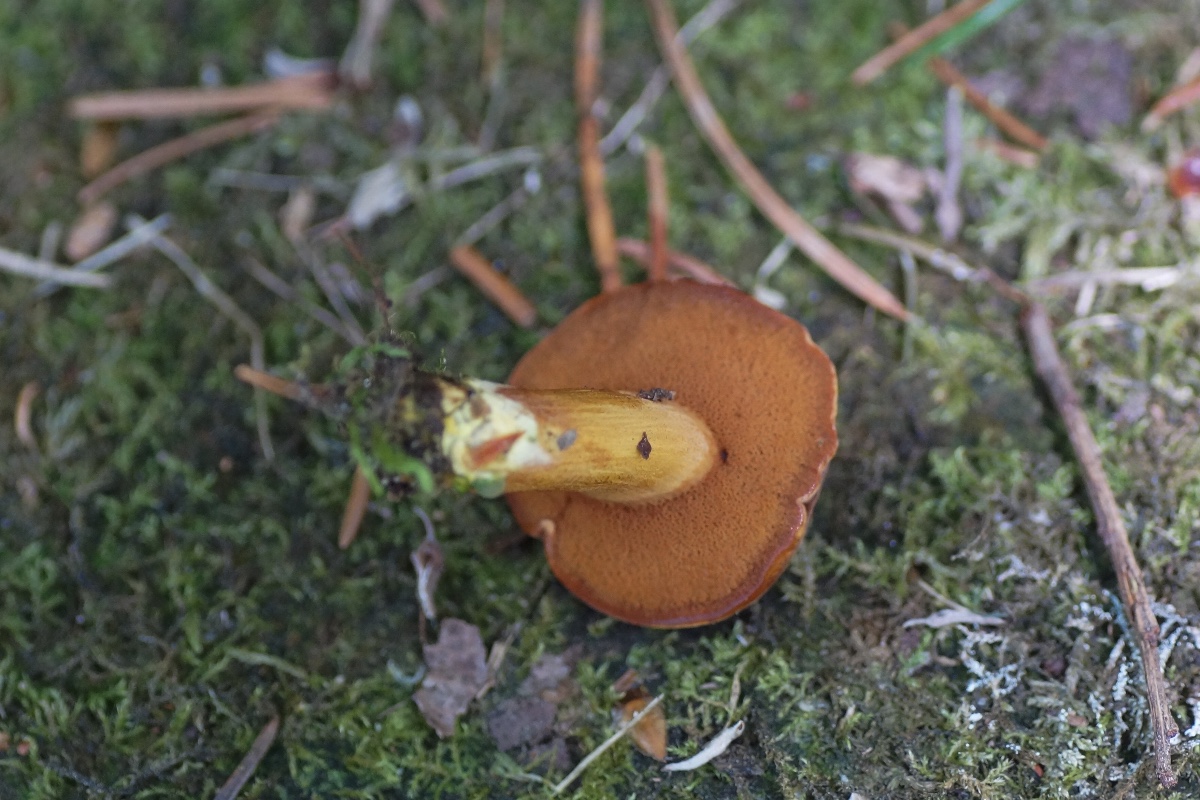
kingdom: Fungi
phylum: Basidiomycota
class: Agaricomycetes
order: Boletales
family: Boletaceae
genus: Chalciporus
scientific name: Chalciporus piperatus
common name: peberrørhat
